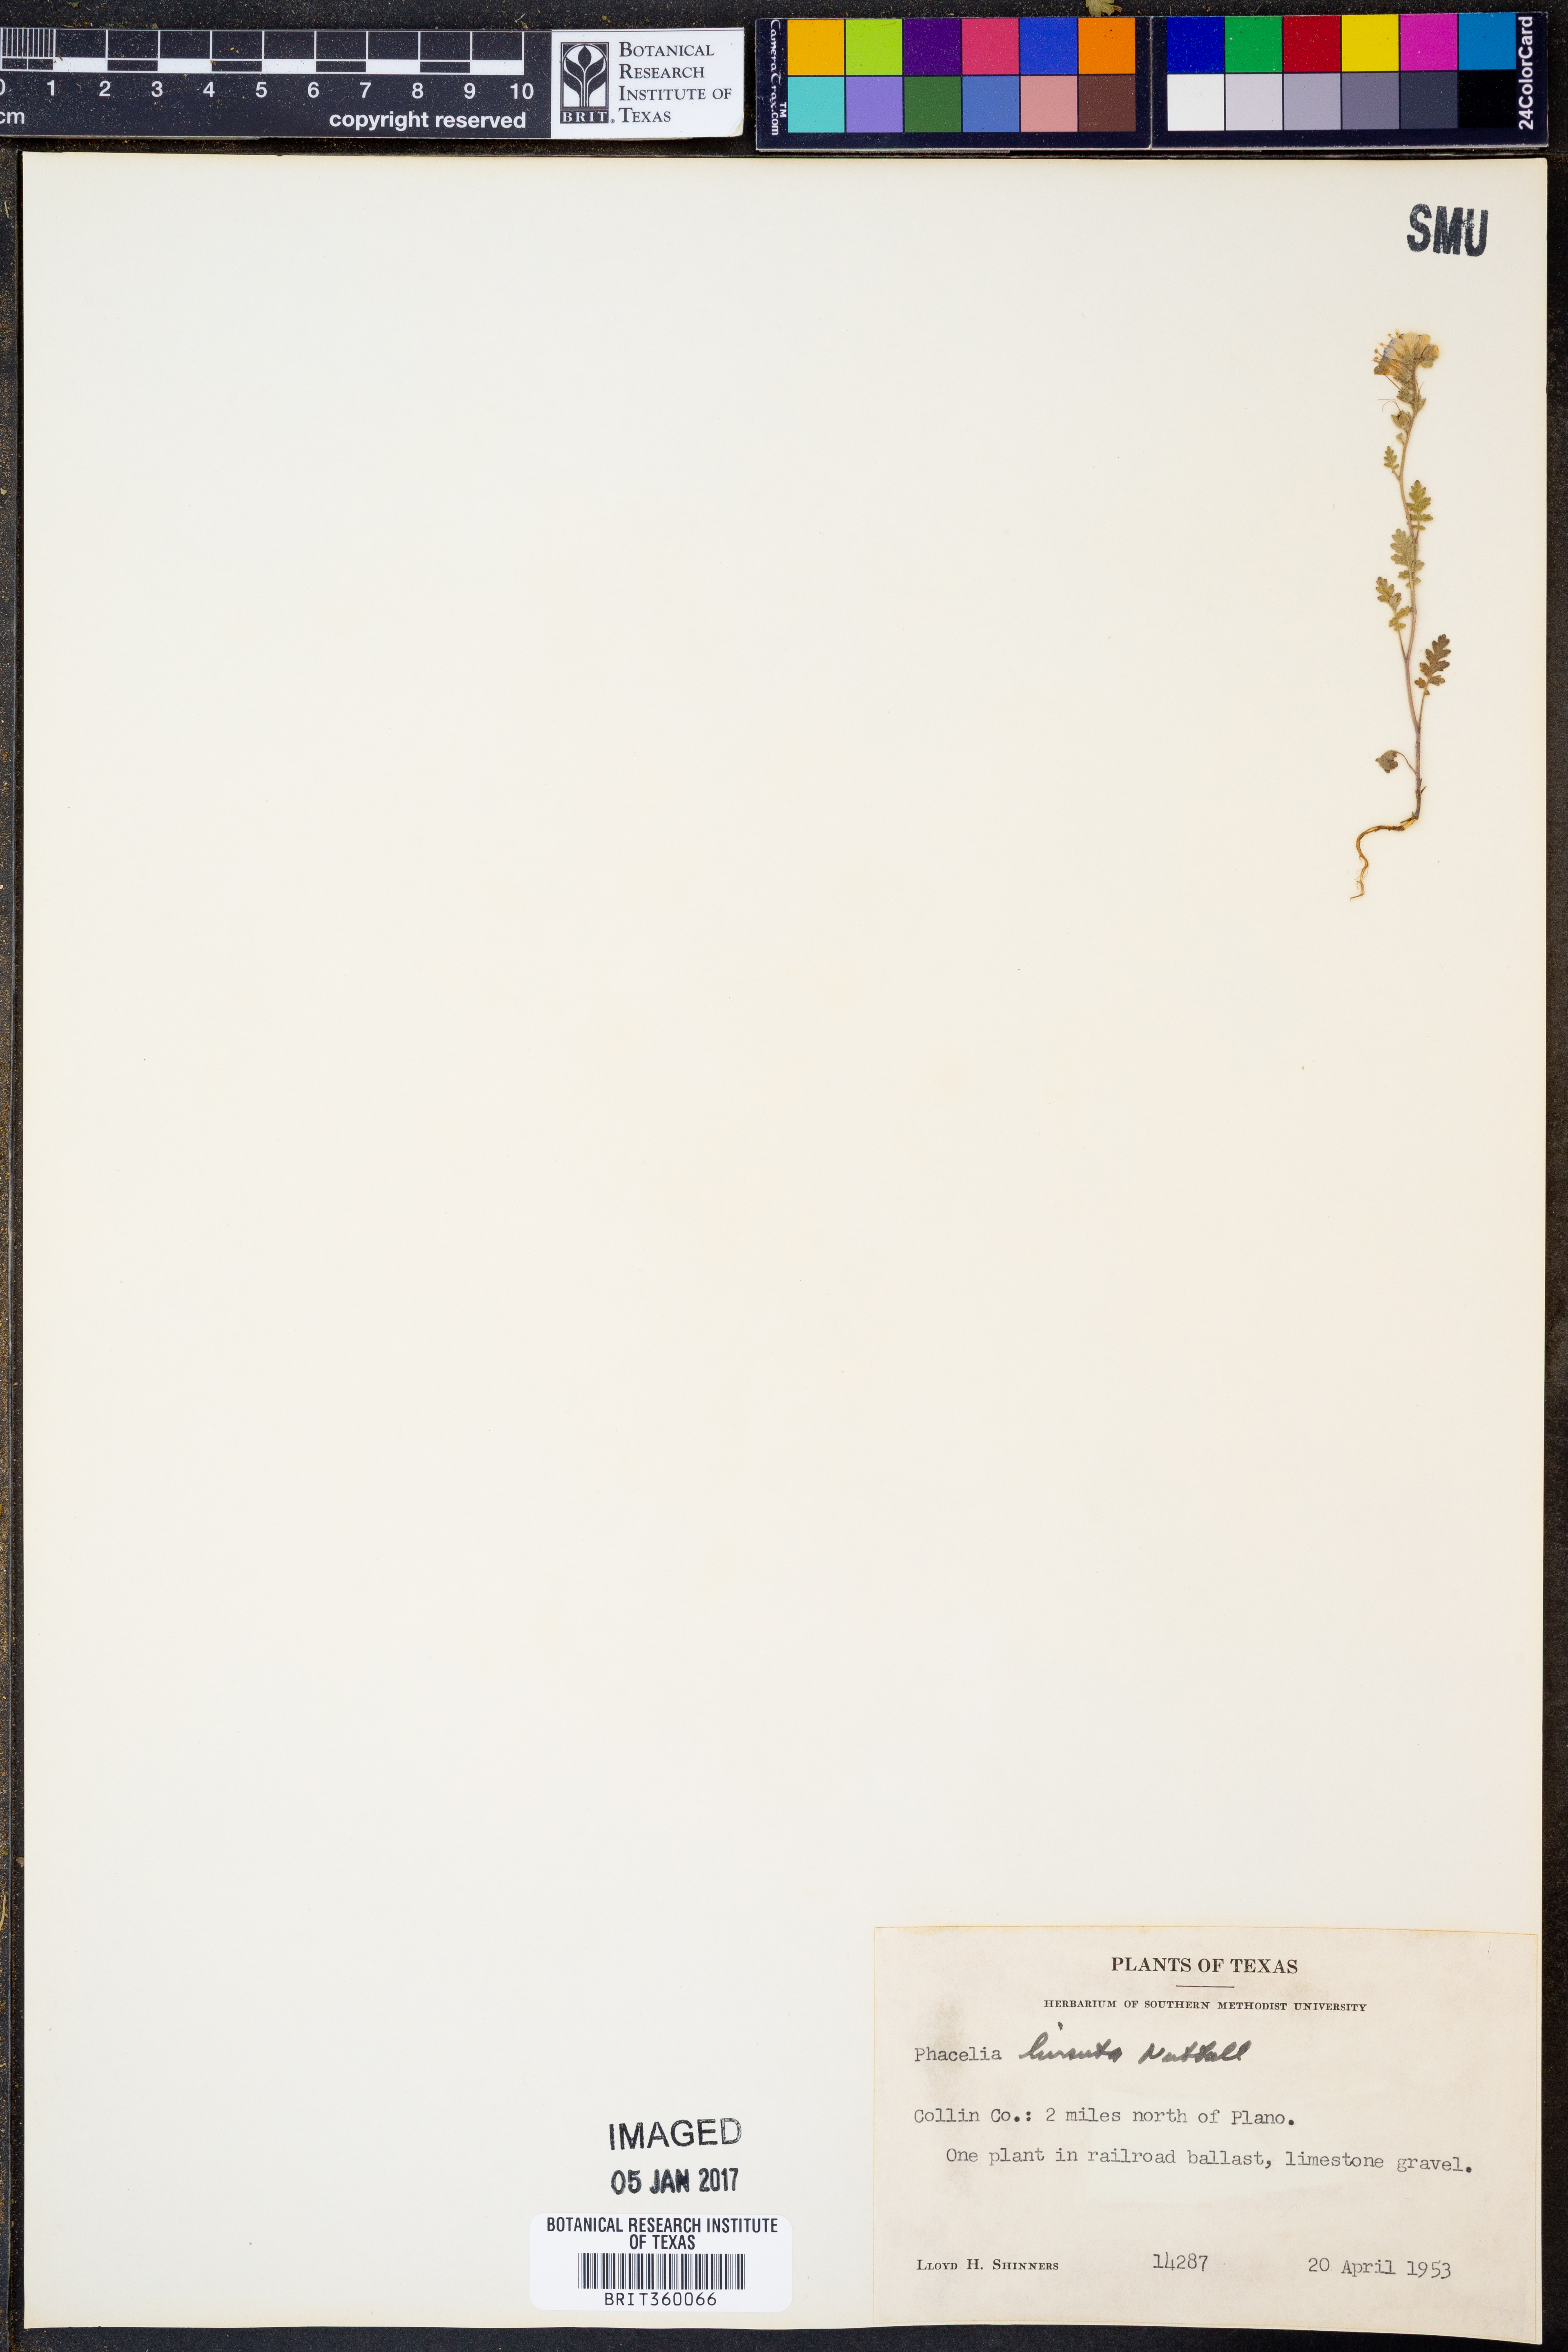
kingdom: Plantae
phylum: Tracheophyta
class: Magnoliopsida
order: Boraginales
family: Hydrophyllaceae
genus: Phacelia
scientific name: Phacelia hirsuta
